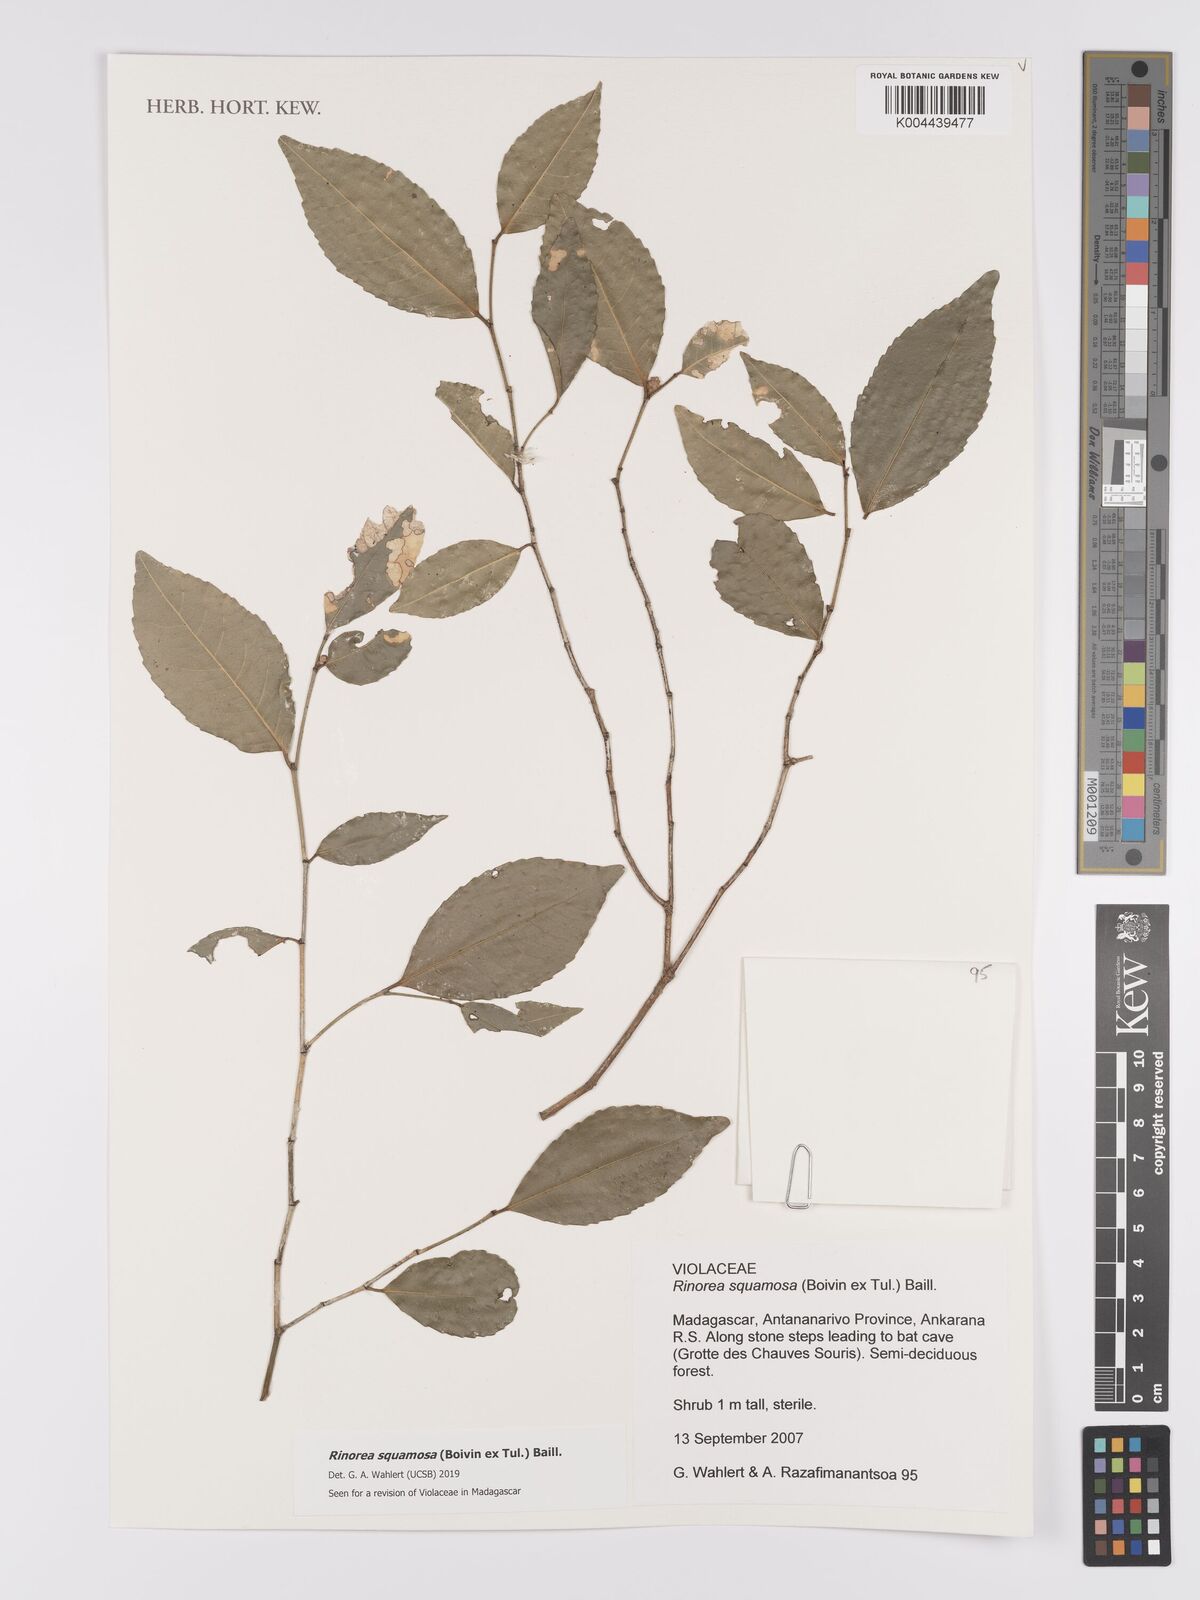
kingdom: Plantae
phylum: Tracheophyta
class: Magnoliopsida
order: Malpighiales
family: Violaceae
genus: Rinorea
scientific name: Rinorea squamosa
